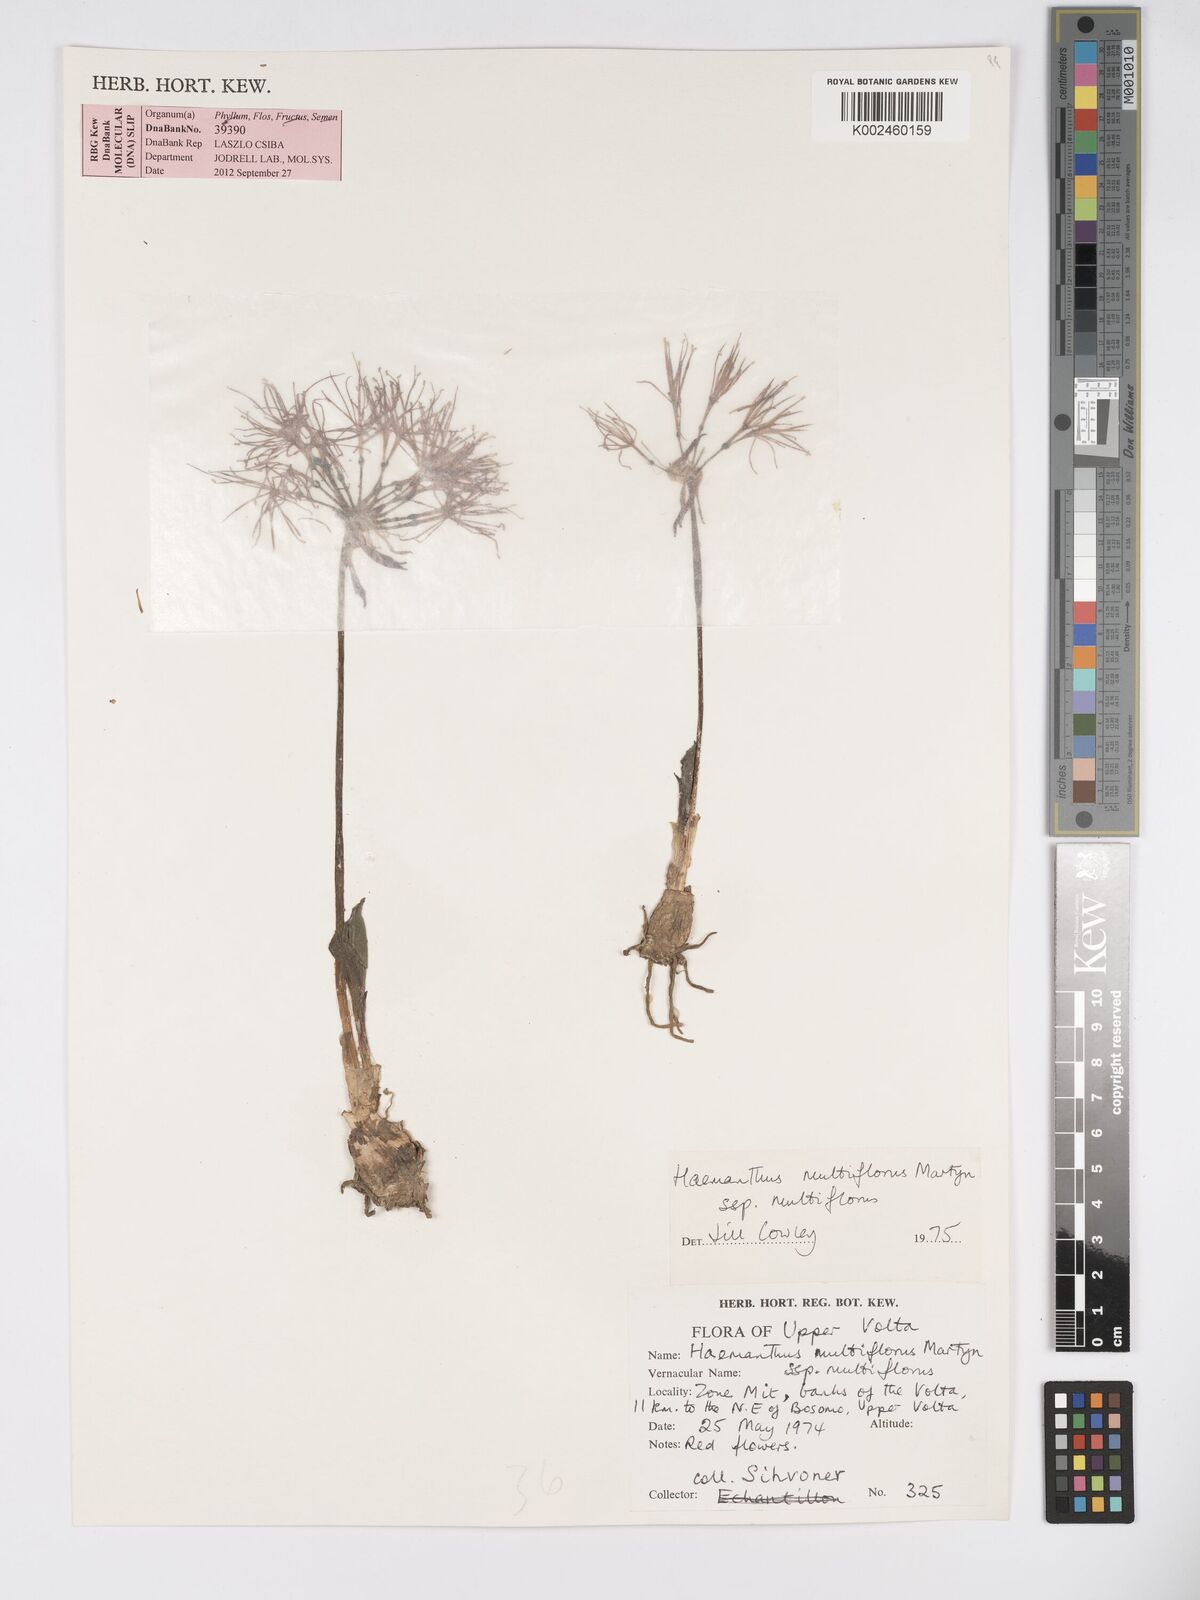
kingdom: Plantae
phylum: Tracheophyta
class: Liliopsida
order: Asparagales
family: Amaryllidaceae
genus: Scadoxus
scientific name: Scadoxus multiflorus
